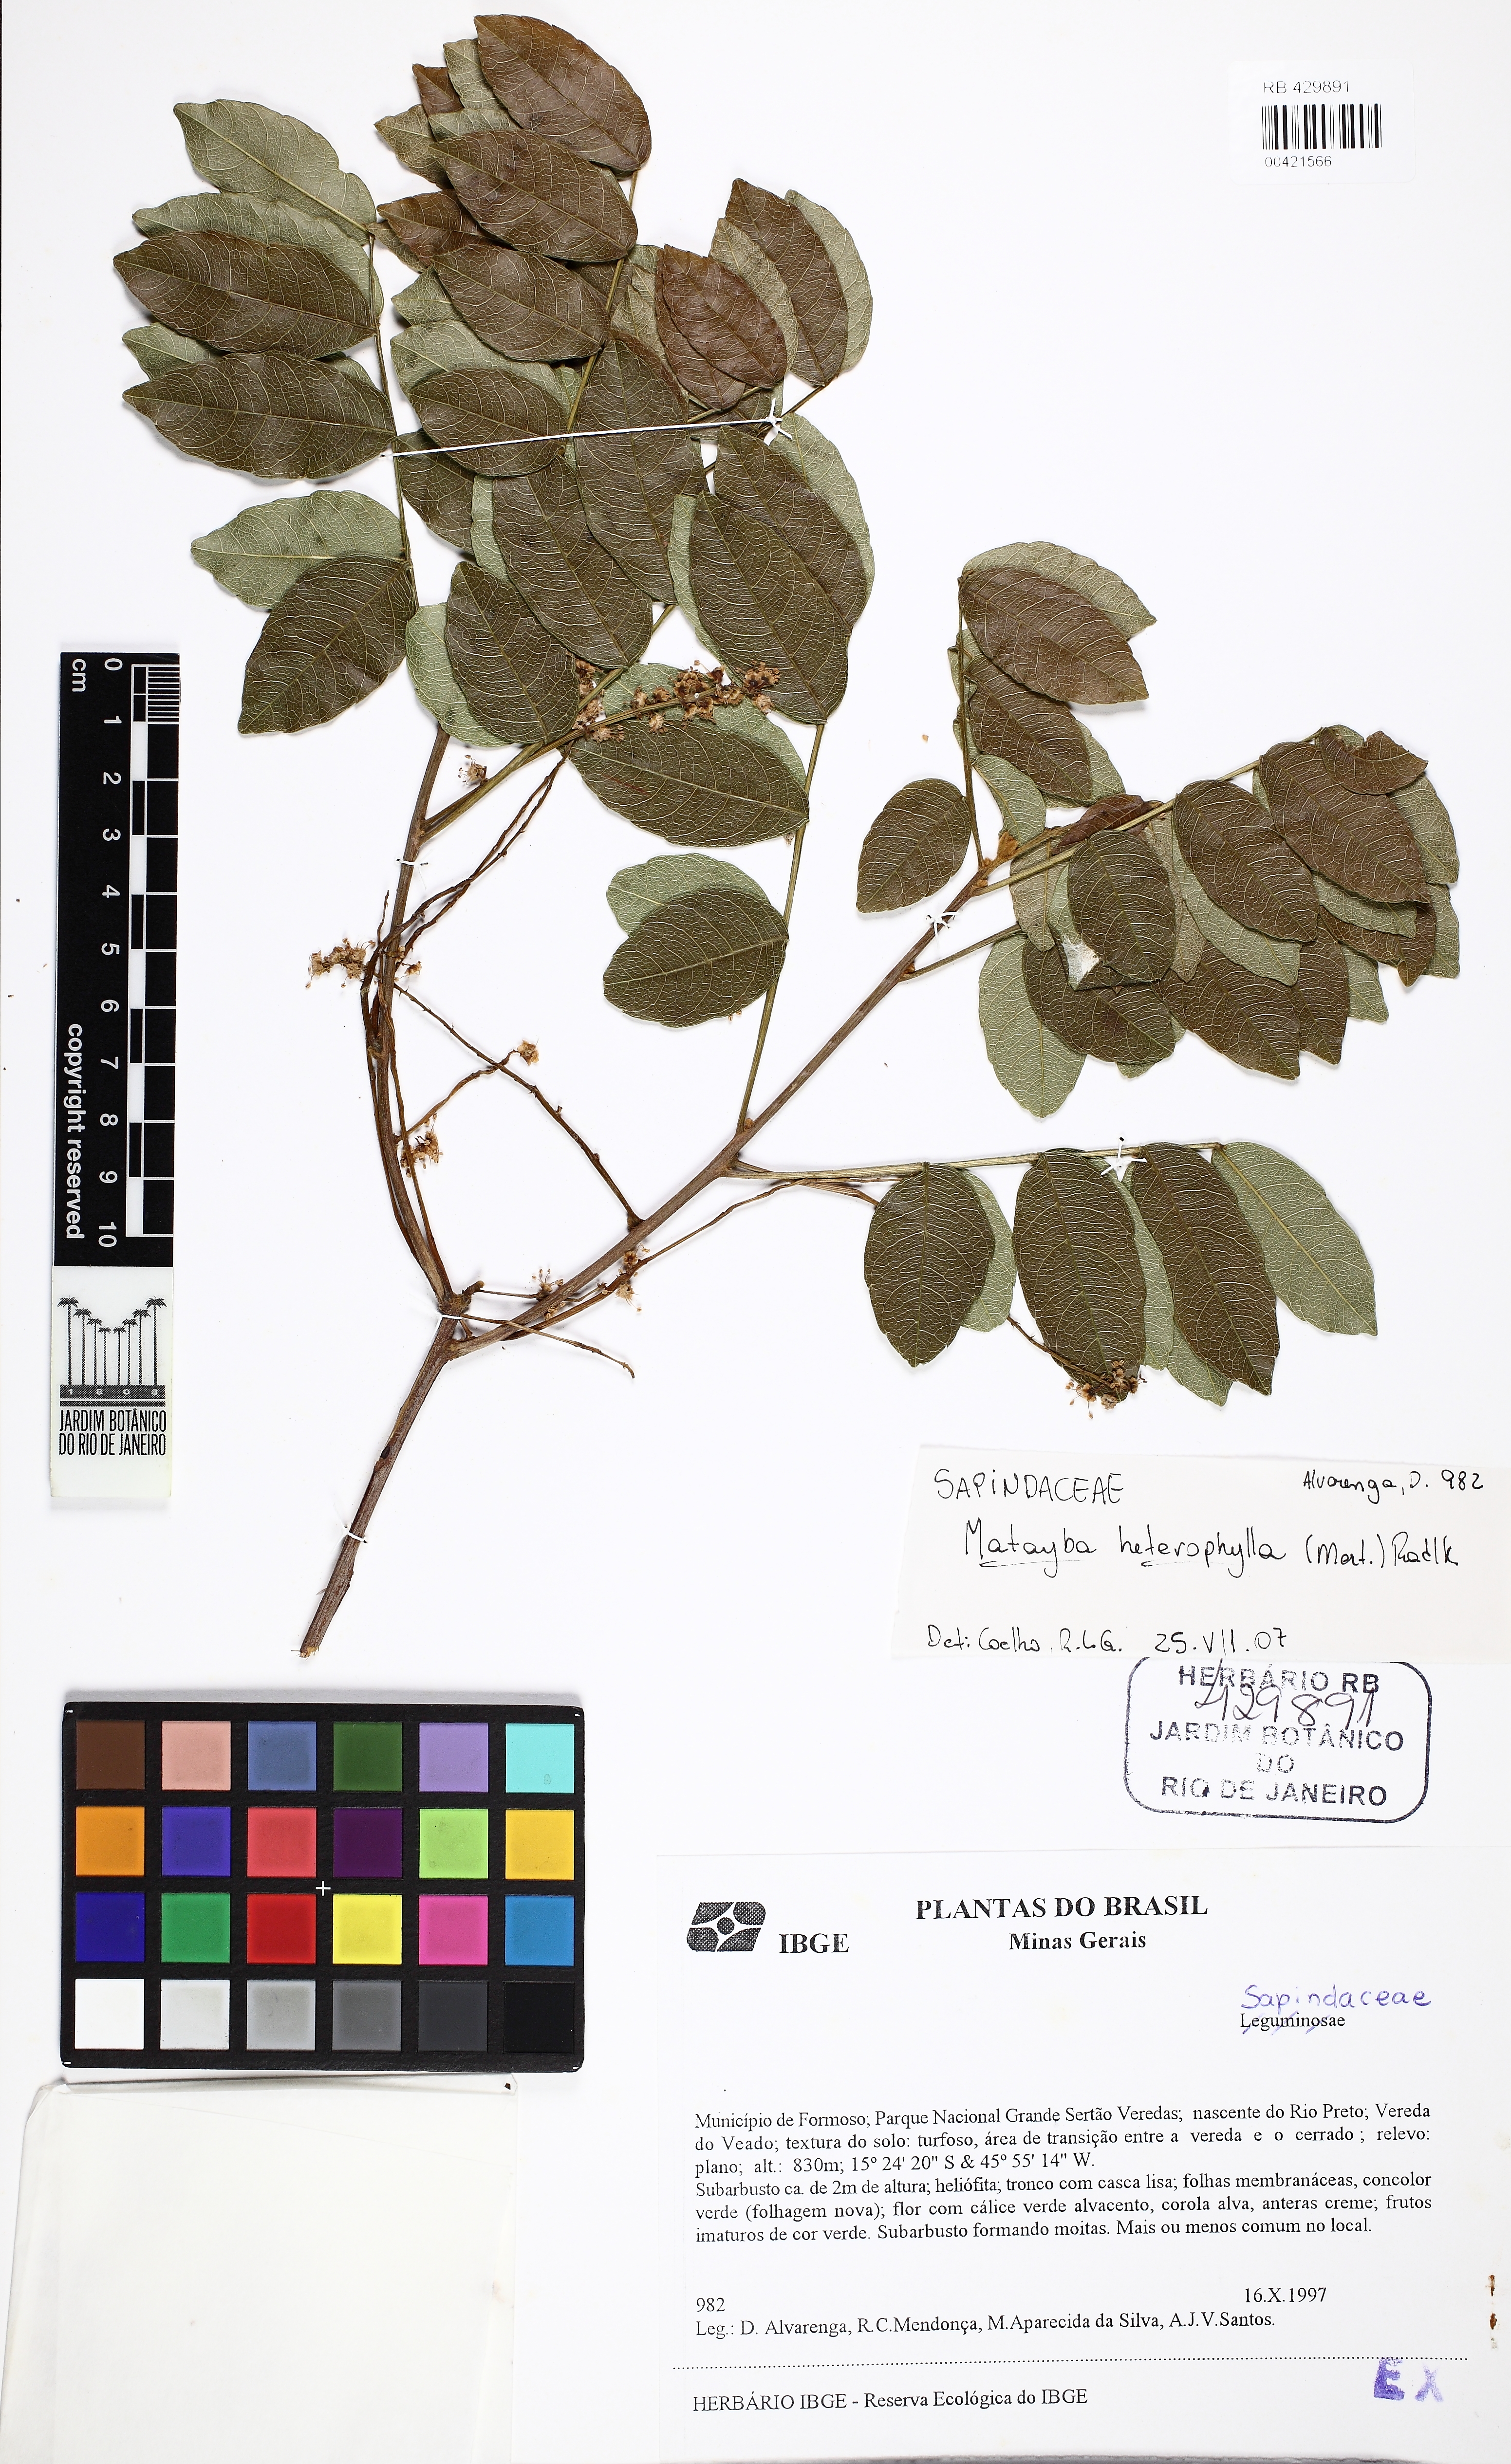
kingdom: Plantae
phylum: Tracheophyta
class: Magnoliopsida
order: Sapindales
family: Sapindaceae
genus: Matayba
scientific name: Matayba heterophylla
